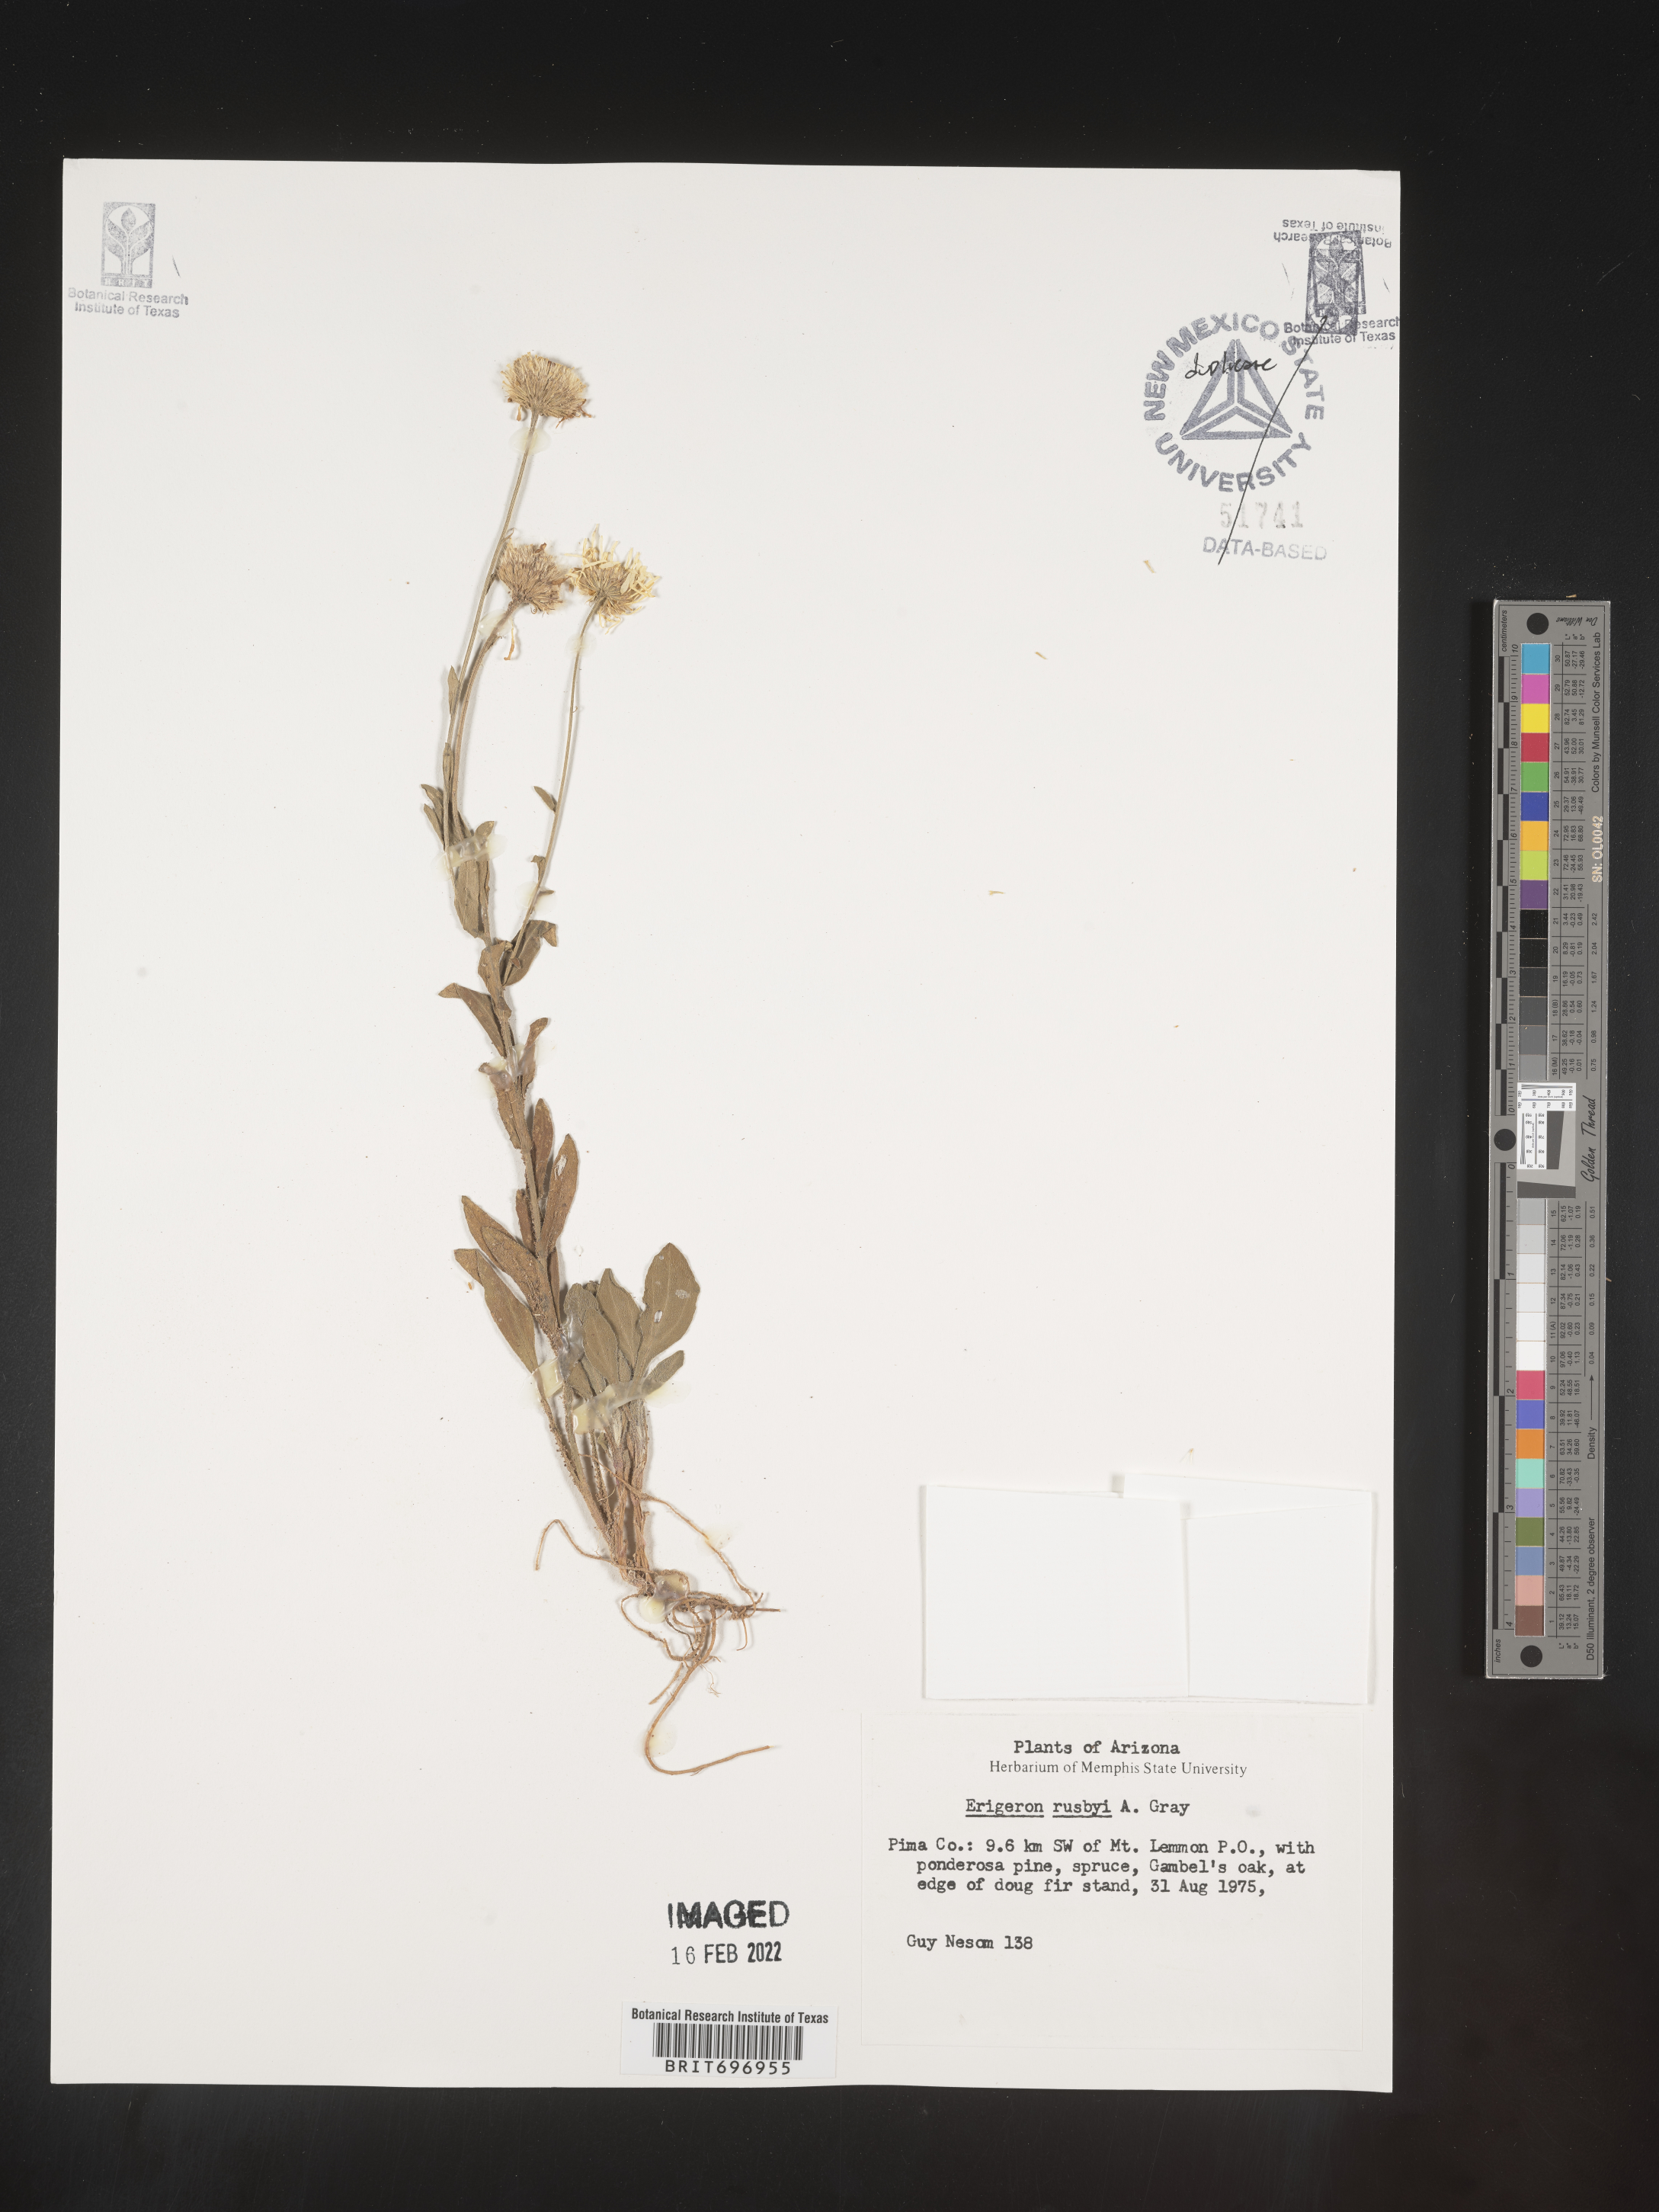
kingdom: Plantae
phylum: Tracheophyta
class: Magnoliopsida
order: Asterales
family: Asteraceae
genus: Erigeron
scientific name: Erigeron arizonicus
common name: Arizona fleabane
